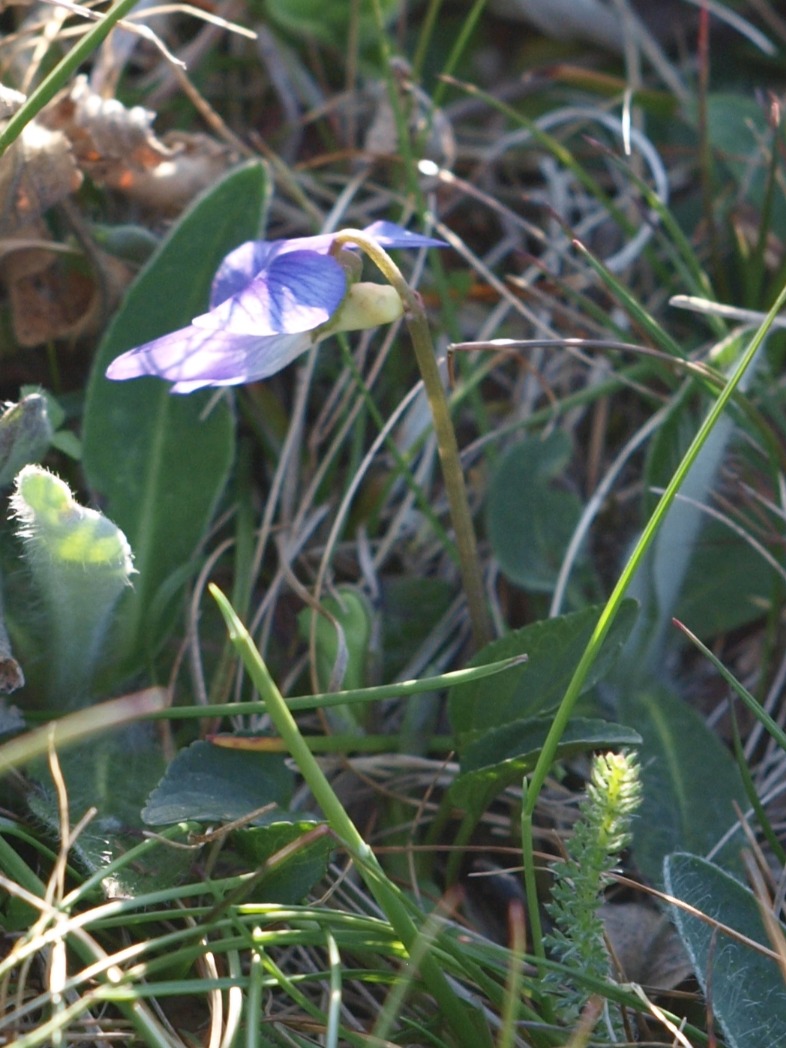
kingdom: Plantae
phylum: Tracheophyta
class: Magnoliopsida
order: Malpighiales
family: Violaceae
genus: Viola
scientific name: Viola canina
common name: Hunde-viol
